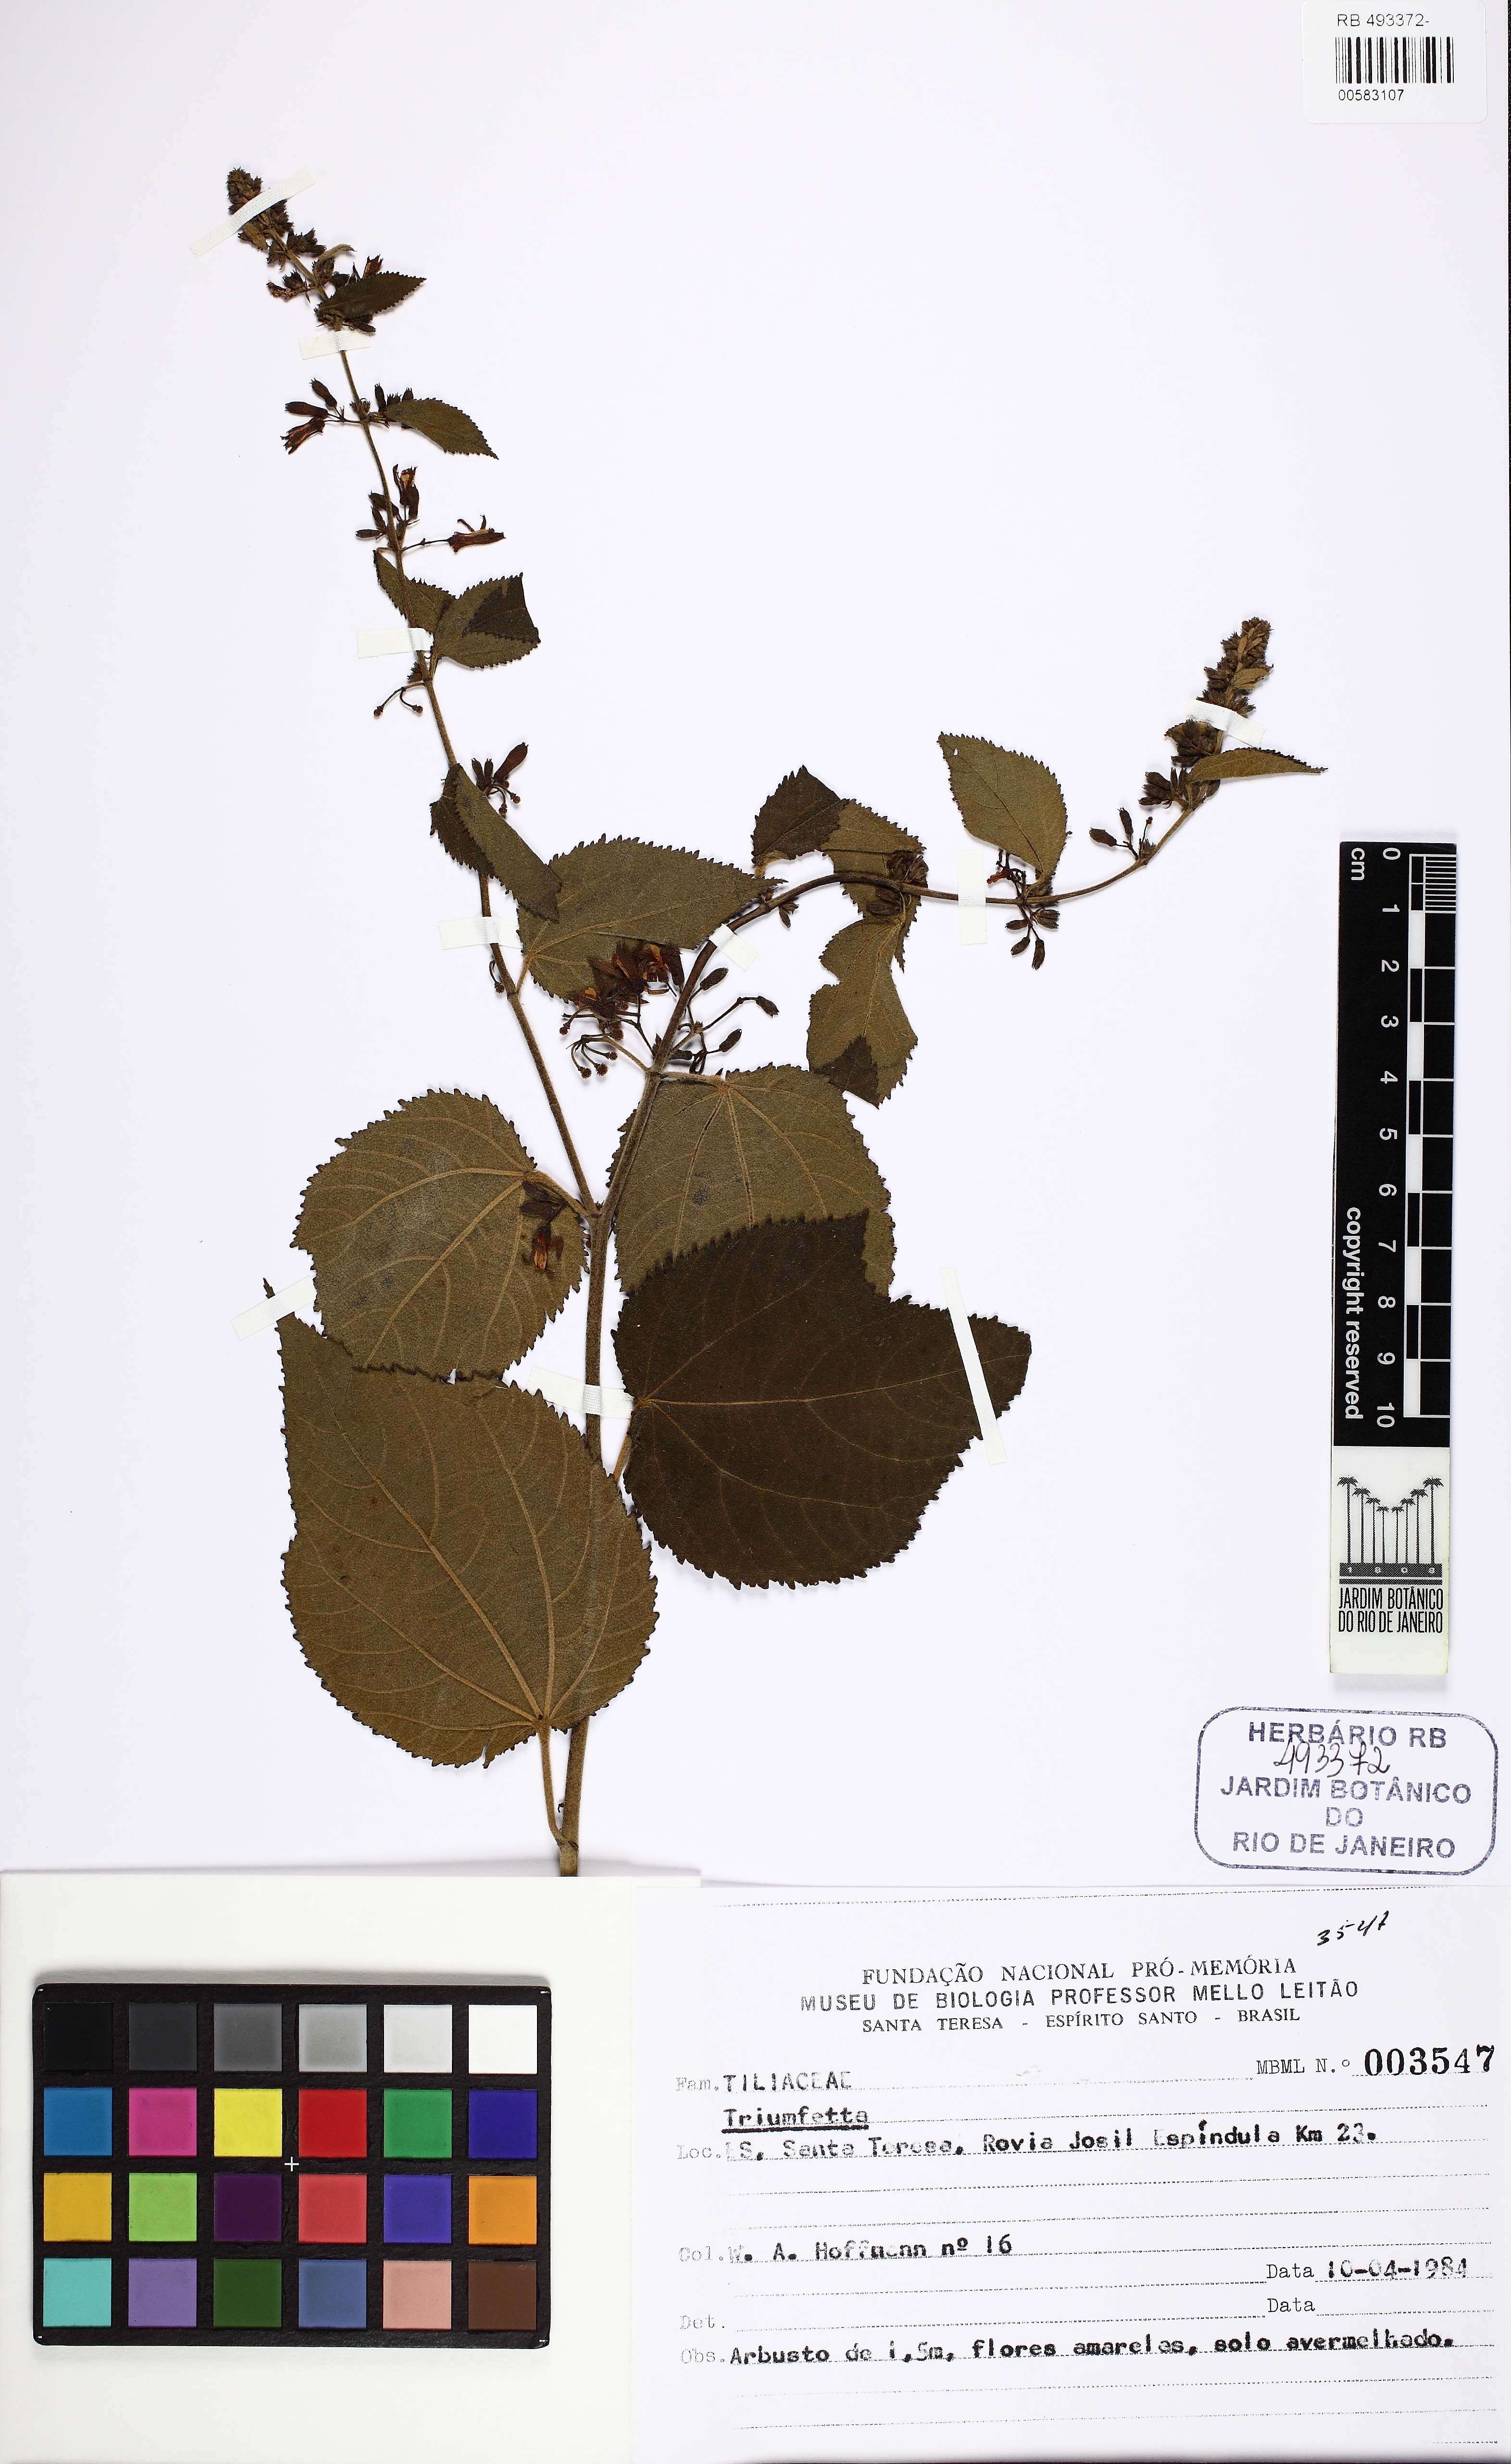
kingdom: Plantae
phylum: Tracheophyta
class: Magnoliopsida
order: Malvales
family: Malvaceae
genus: Triumfetta
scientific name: Triumfetta
